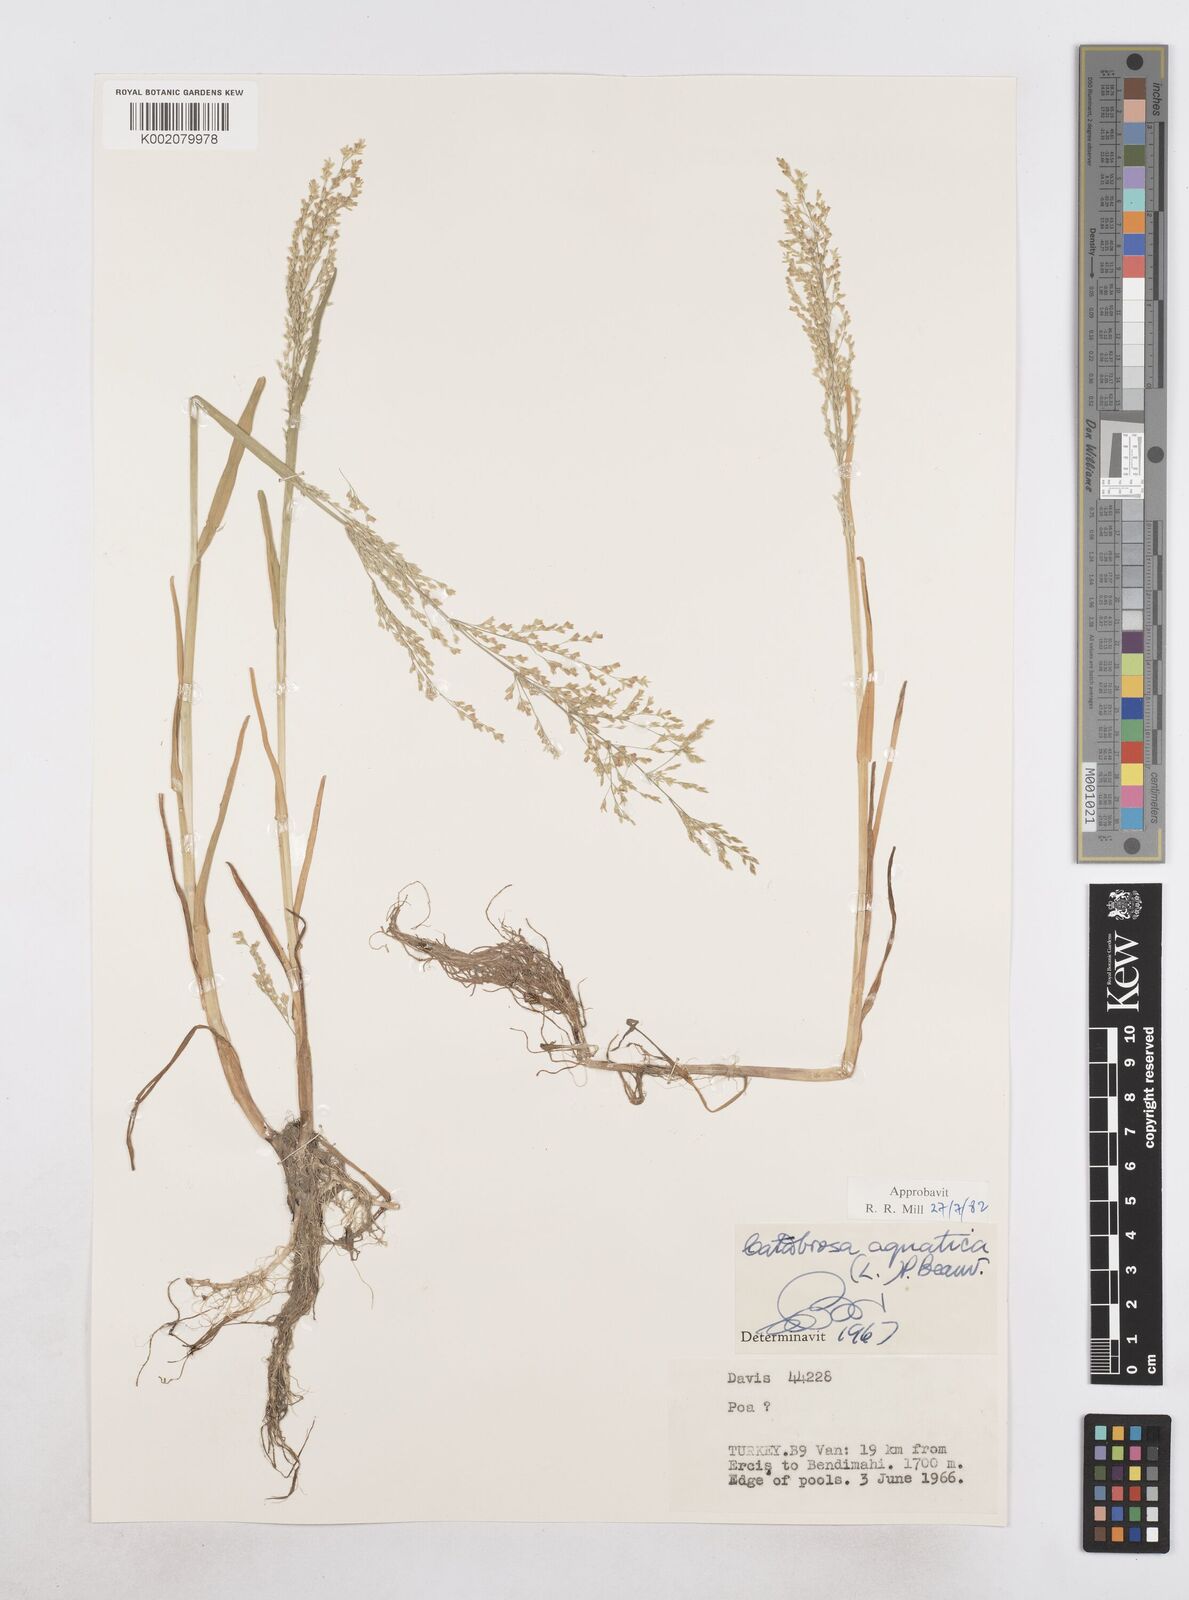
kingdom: Plantae
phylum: Tracheophyta
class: Liliopsida
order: Poales
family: Poaceae
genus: Catabrosa
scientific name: Catabrosa aquatica
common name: Whorl-grass
